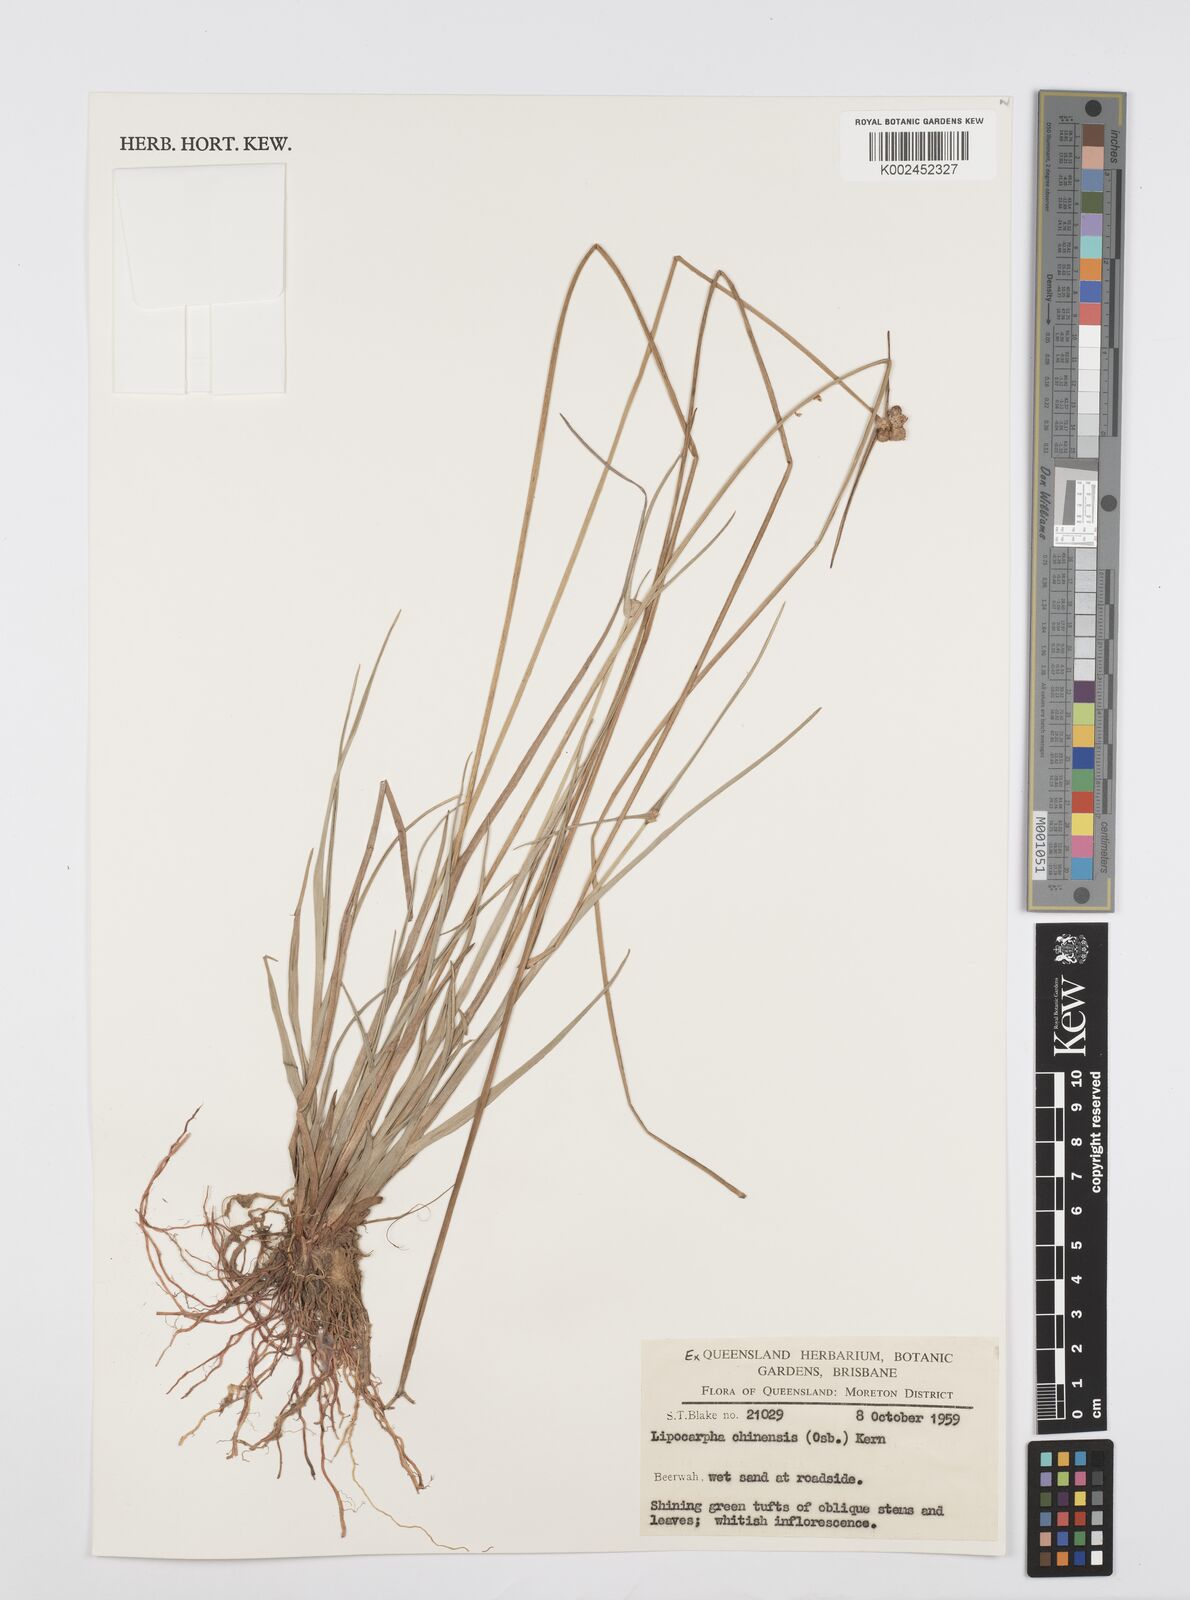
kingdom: Plantae
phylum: Tracheophyta
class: Liliopsida
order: Poales
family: Cyperaceae
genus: Cyperus
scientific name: Cyperus
